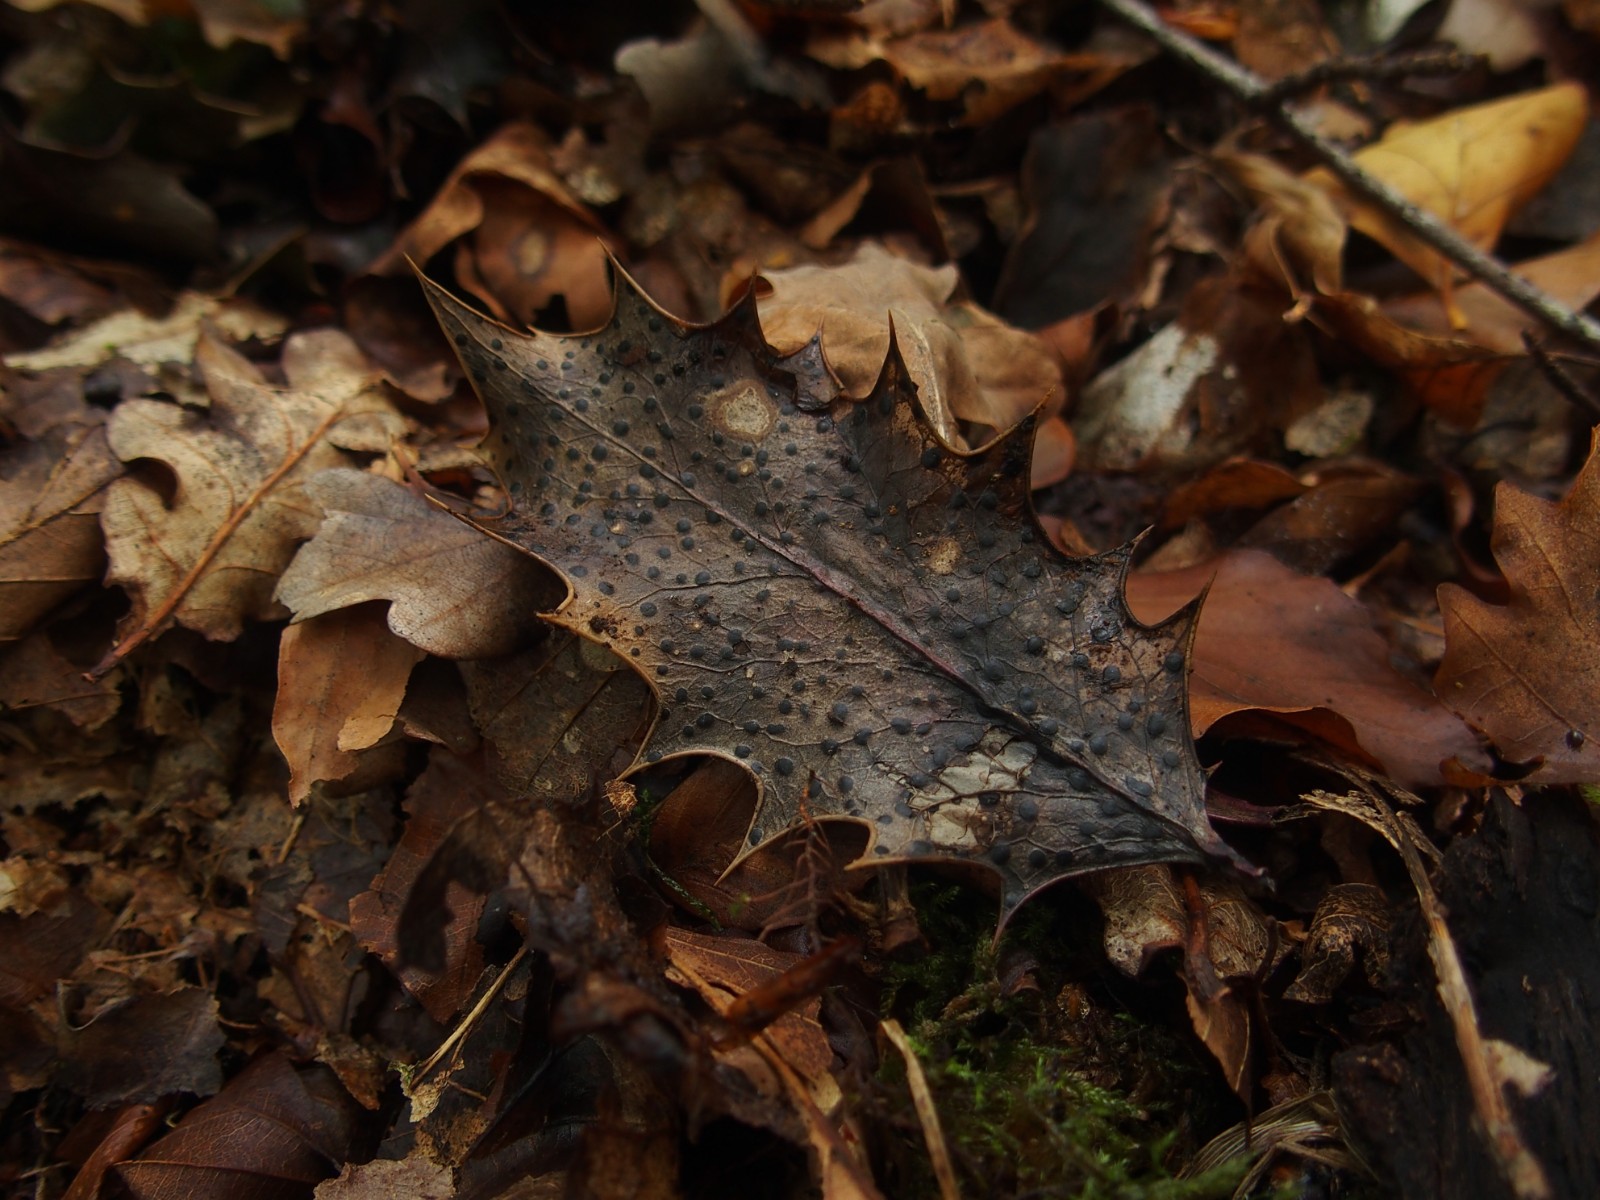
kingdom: Fungi
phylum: Ascomycota
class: Leotiomycetes
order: Phacidiales
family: Phacidiaceae
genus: Phacidium
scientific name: Phacidium lauri
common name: kristtorn-tandskive
